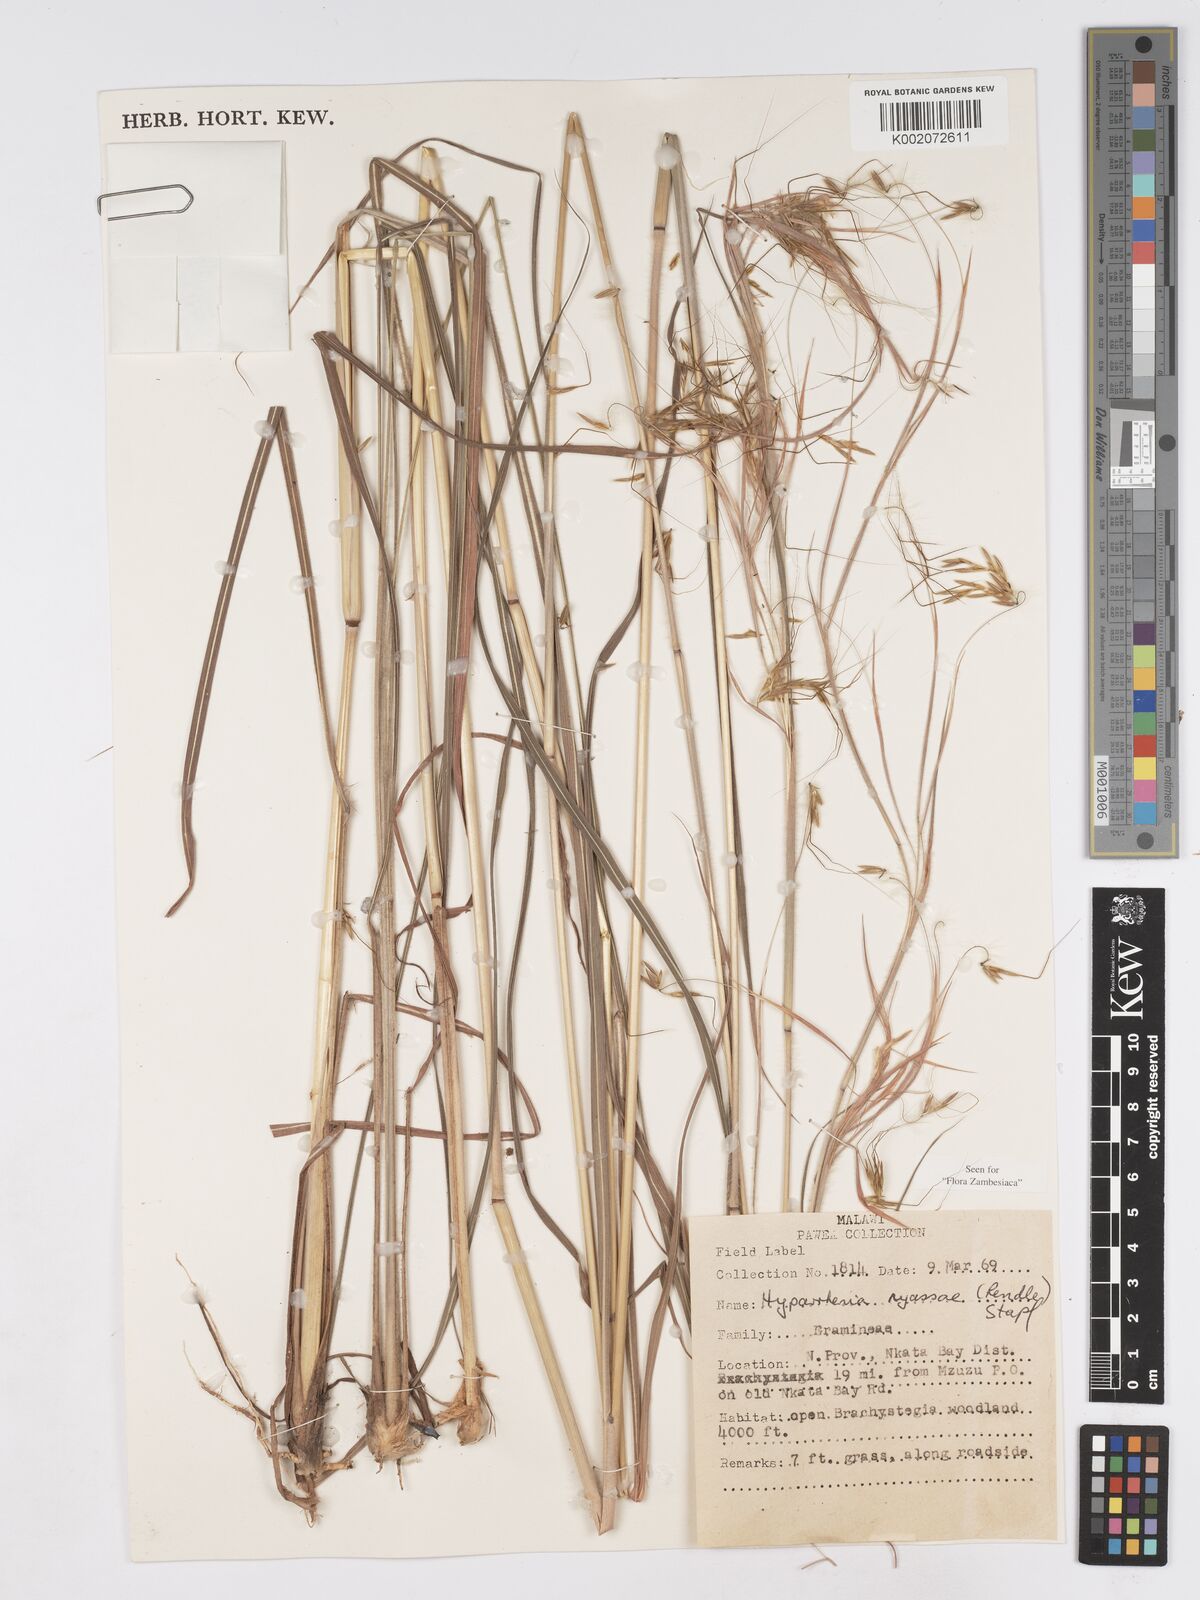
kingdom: Plantae
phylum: Tracheophyta
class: Liliopsida
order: Poales
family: Poaceae
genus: Hyparrhenia
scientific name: Hyparrhenia nyassae
